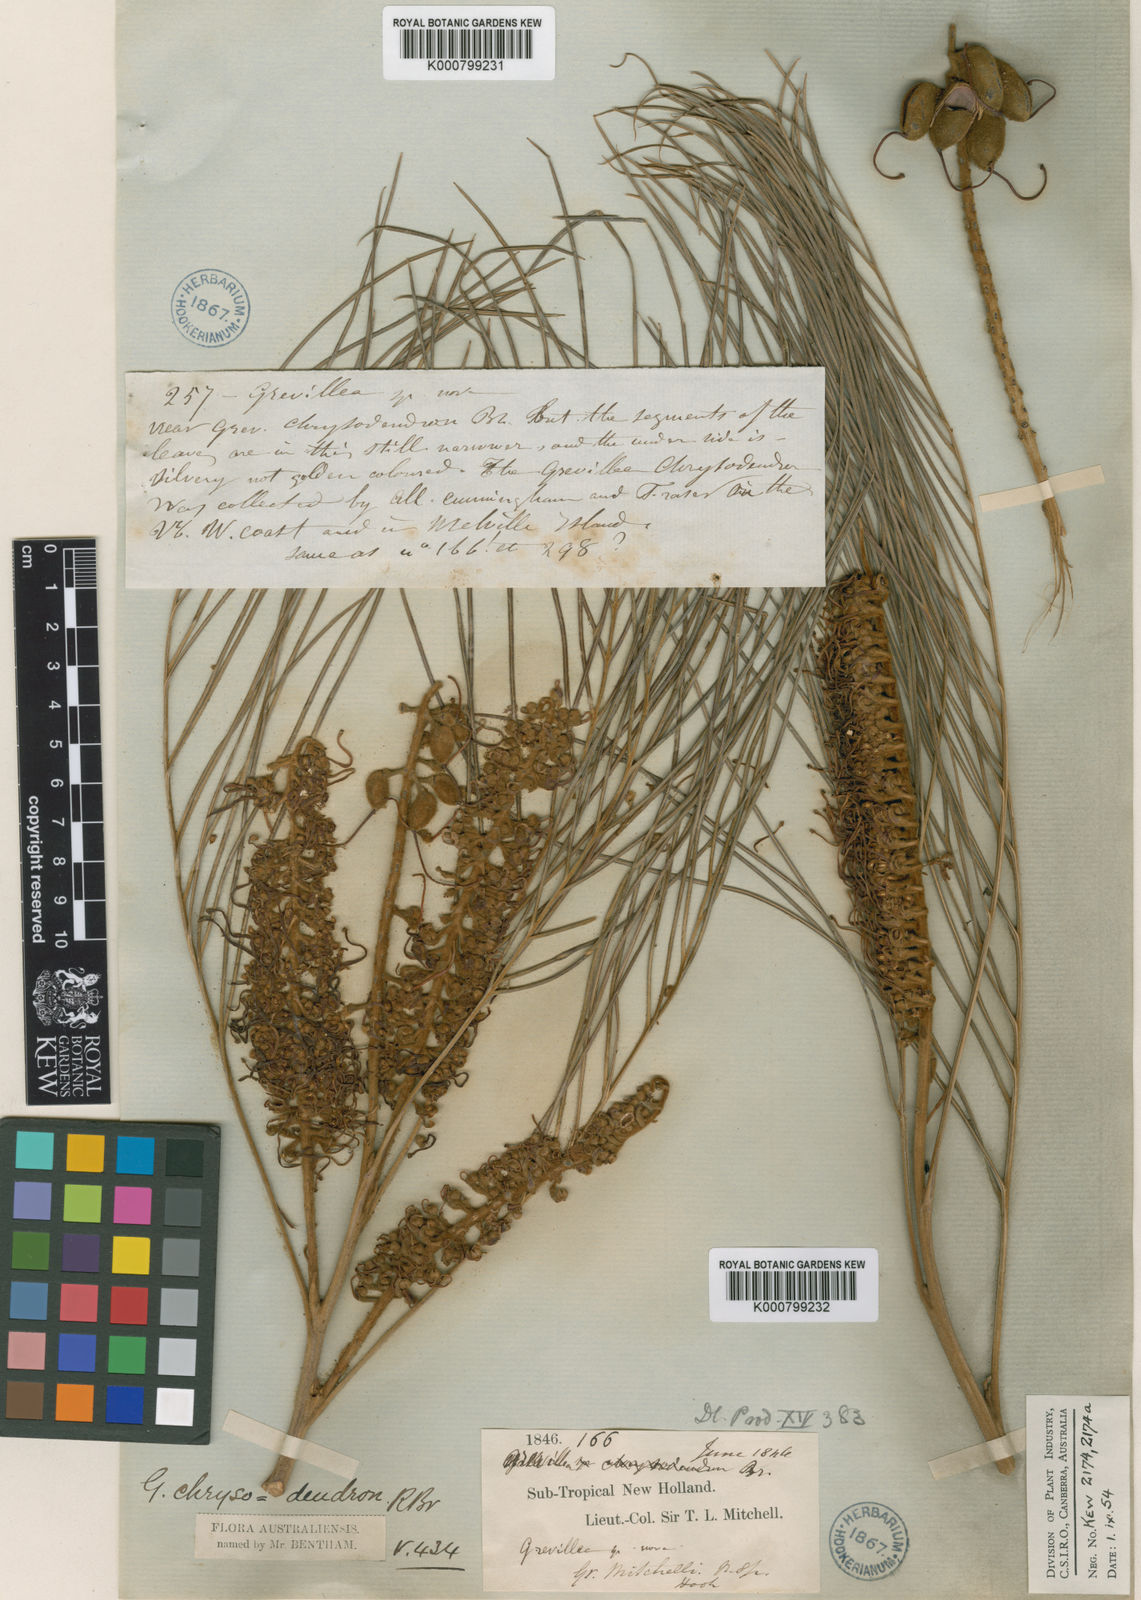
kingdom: Plantae
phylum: Tracheophyta
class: Magnoliopsida
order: Proteales
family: Proteaceae
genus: Grevillea
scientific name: Grevillea pteridifolia
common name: Golden grevillea
